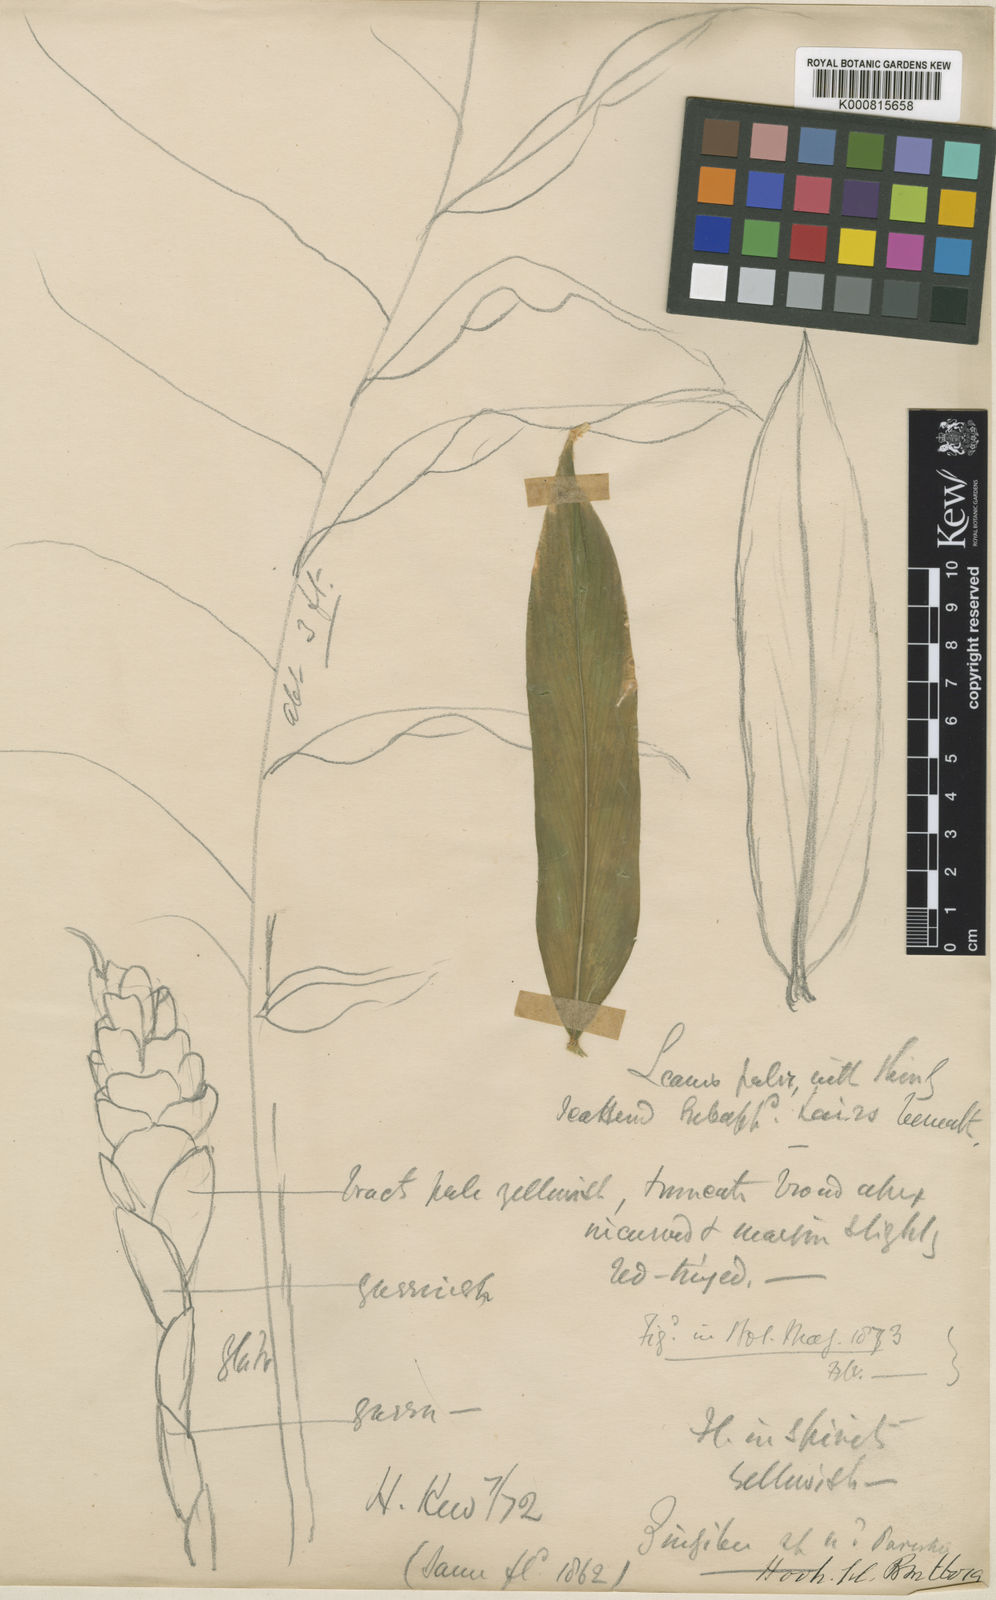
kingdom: Plantae
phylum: Tracheophyta
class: Liliopsida
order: Zingiberales
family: Zingiberaceae
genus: Zingiber
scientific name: Zingiber parishii
